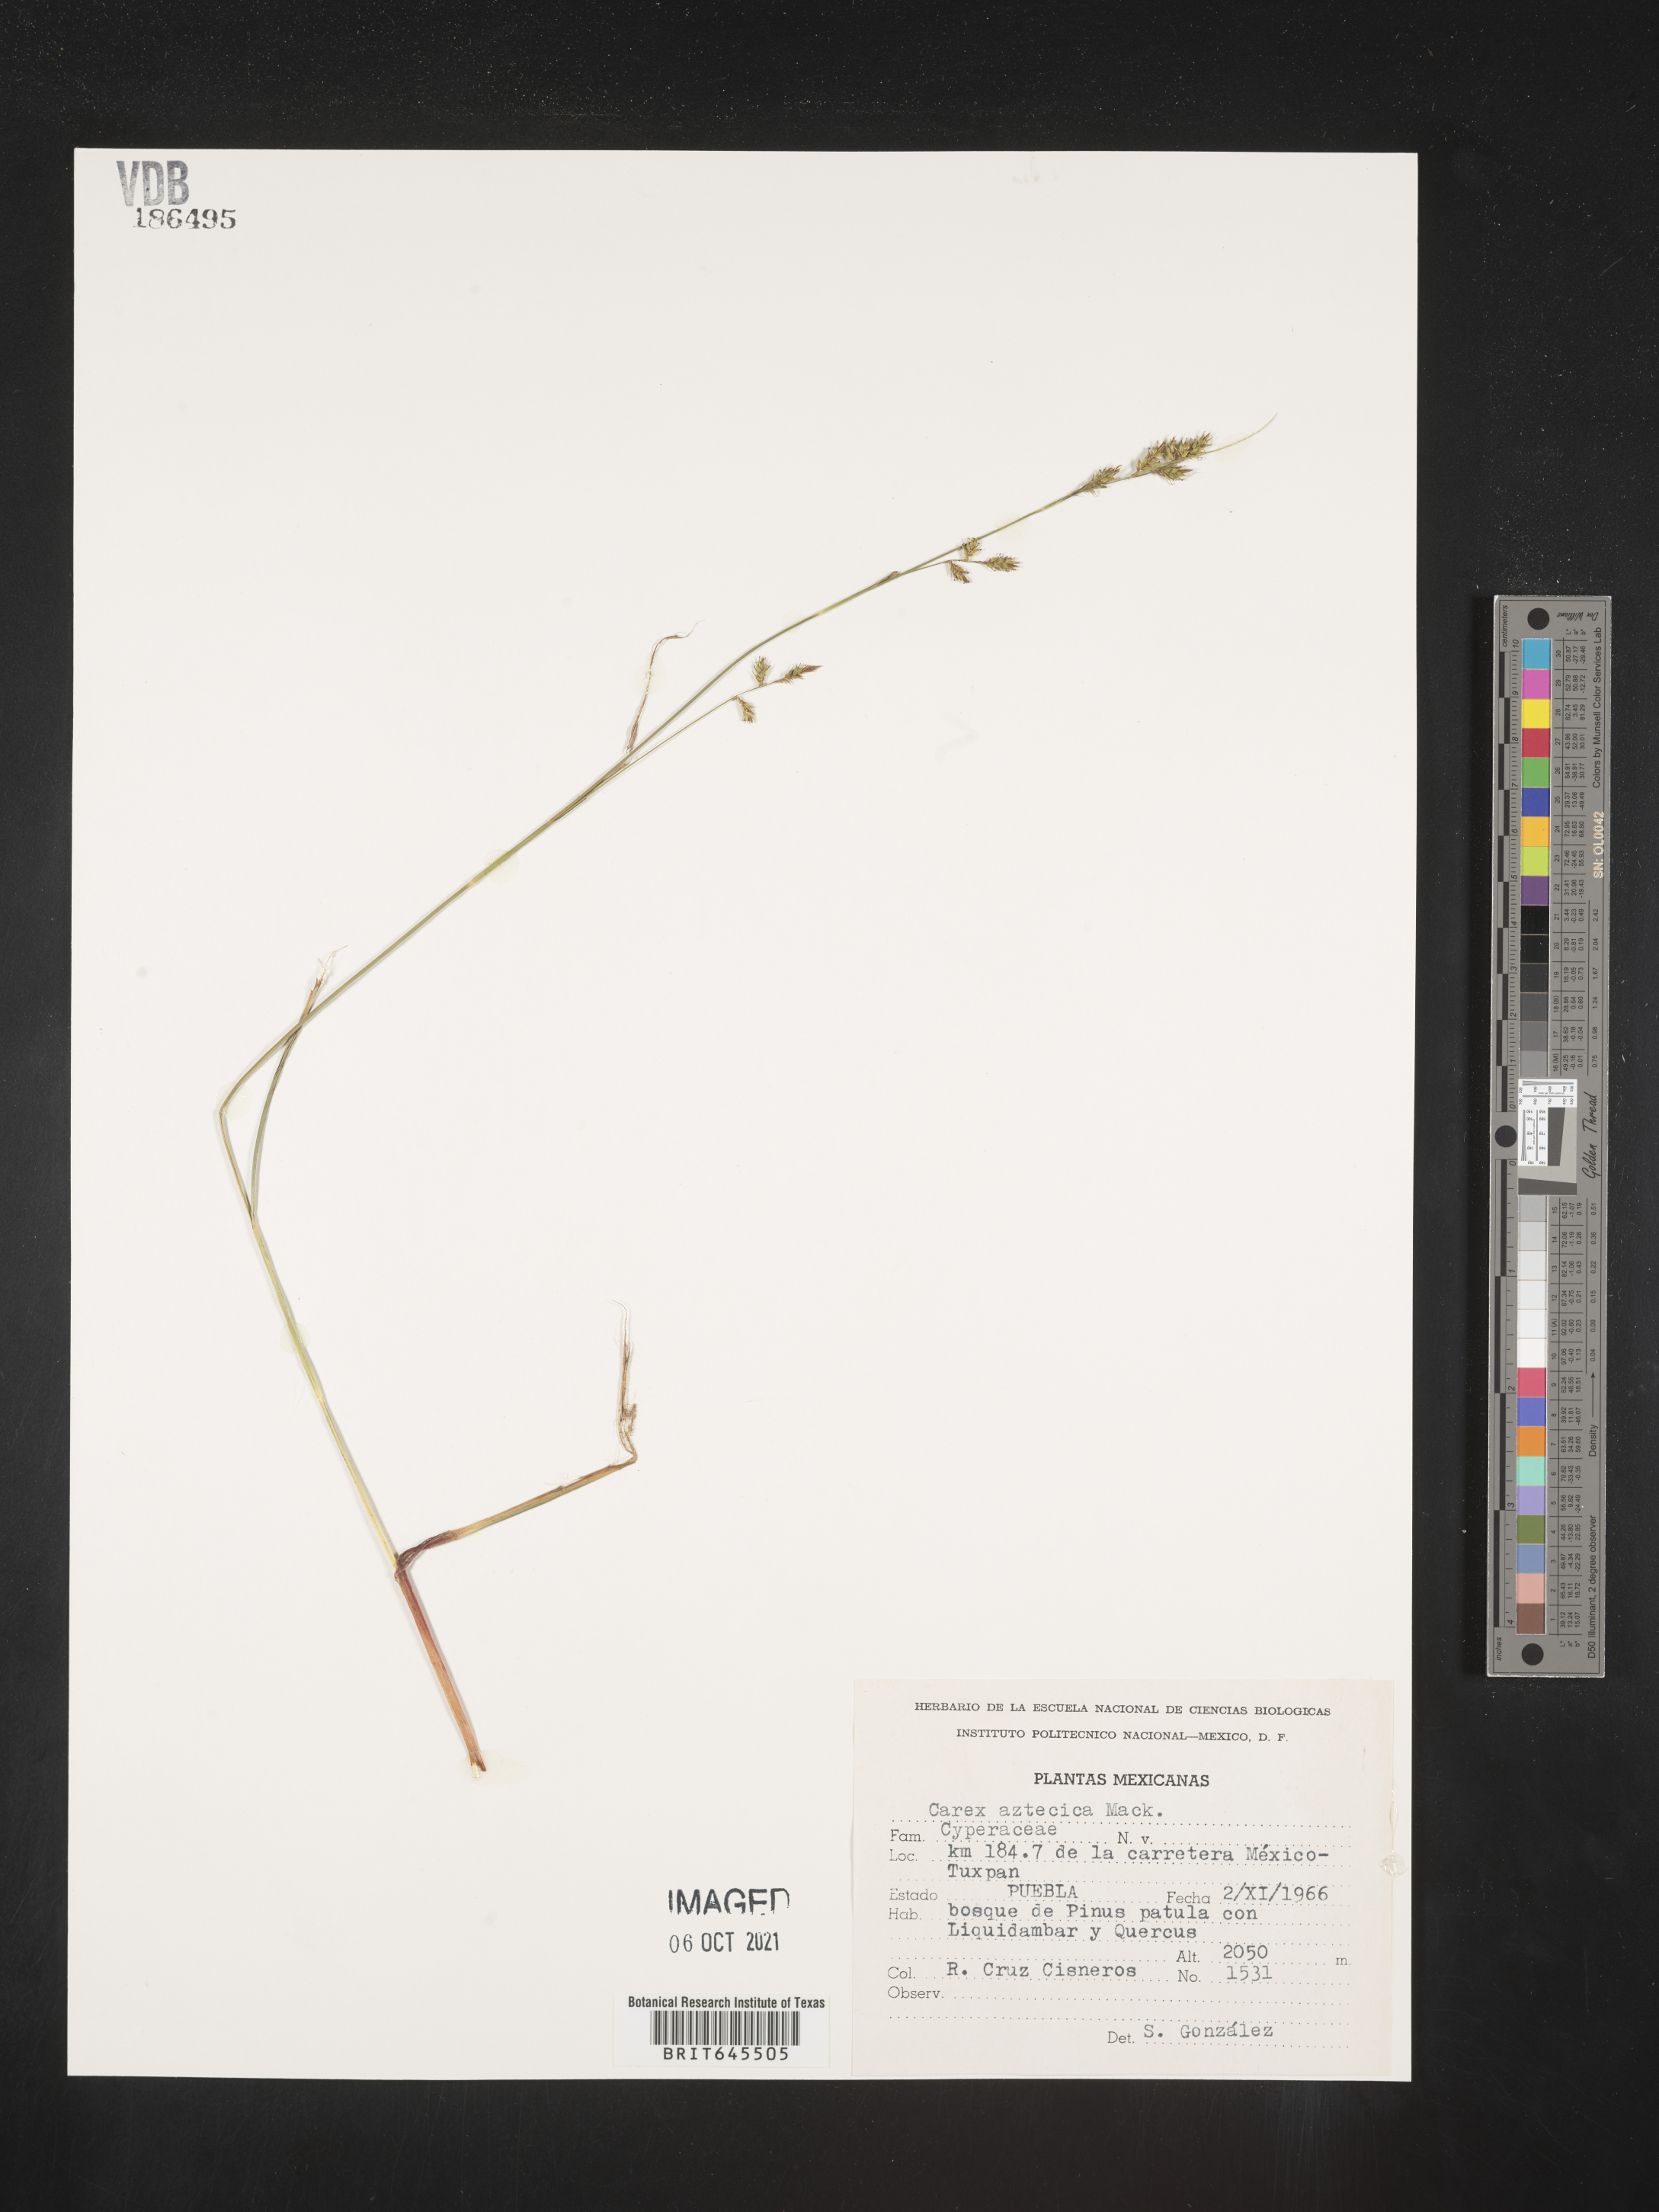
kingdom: Plantae
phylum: Tracheophyta
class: Liliopsida
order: Poales
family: Cyperaceae
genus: Carex
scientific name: Carex
